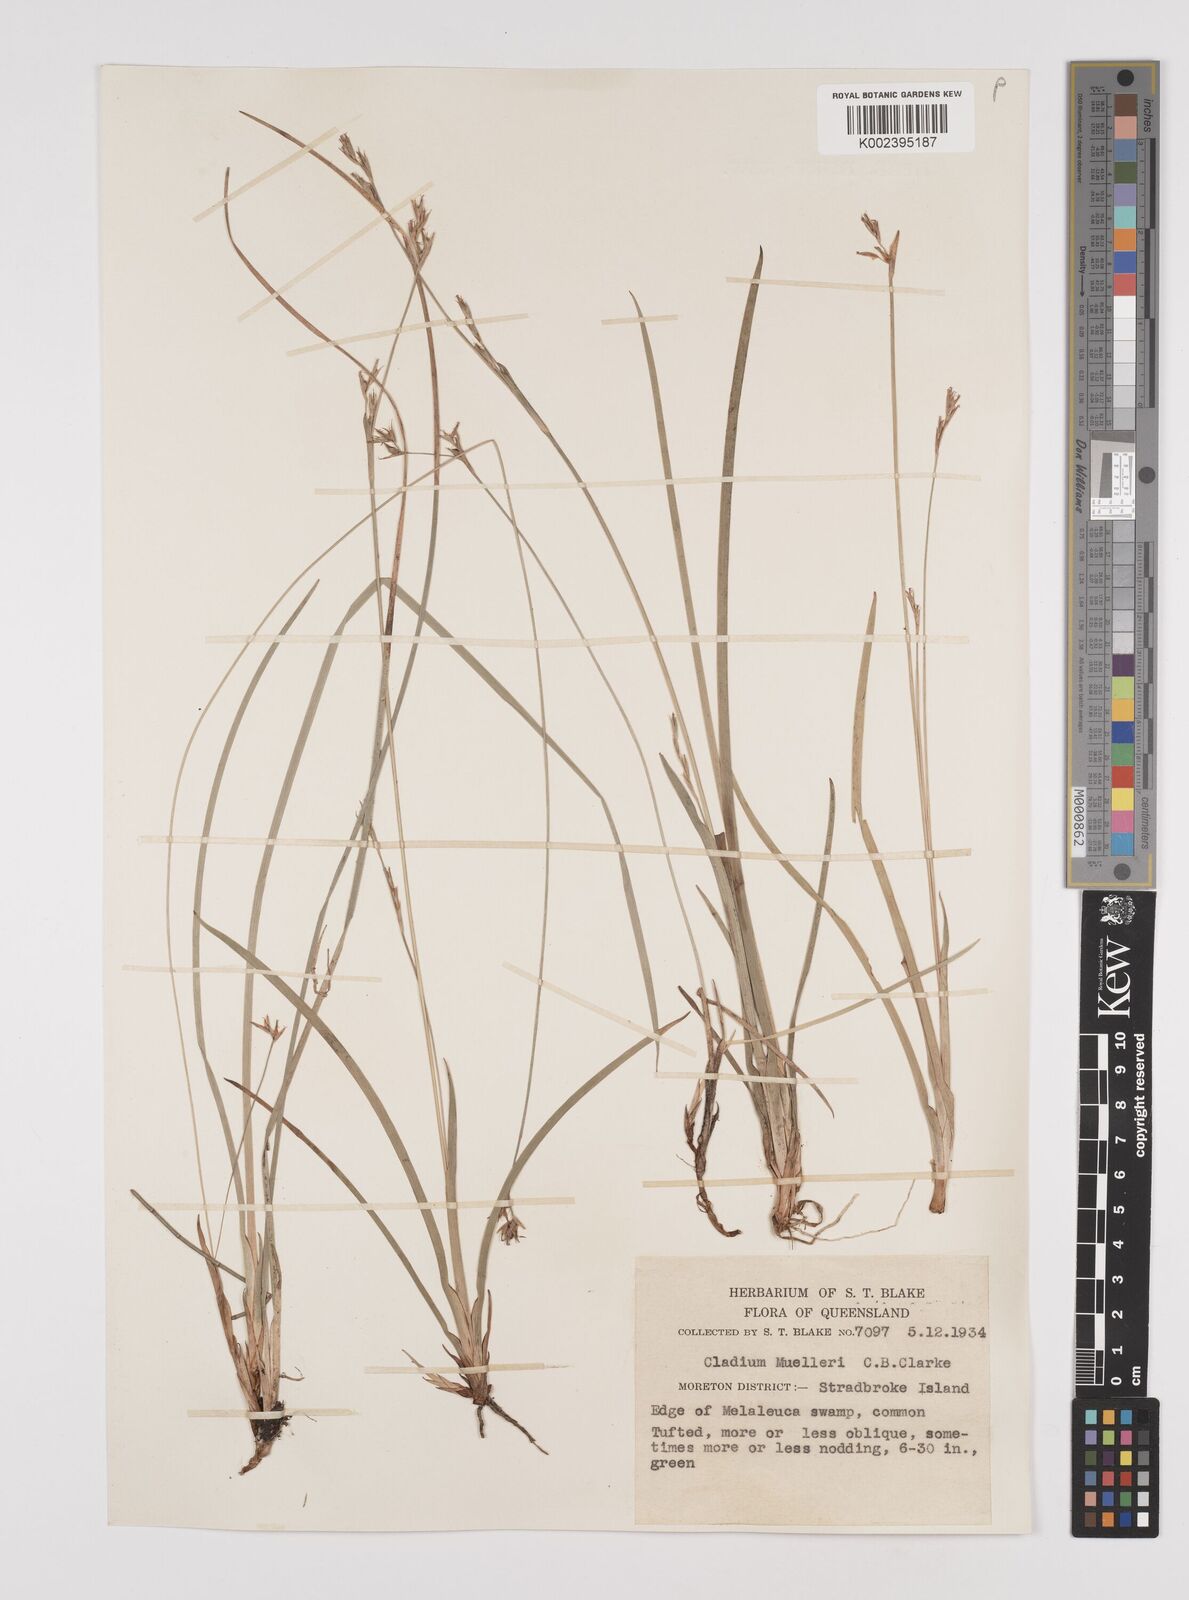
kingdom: Plantae
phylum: Tracheophyta
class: Liliopsida
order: Poales
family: Cyperaceae
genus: Machaerina
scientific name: Machaerina muelleri
